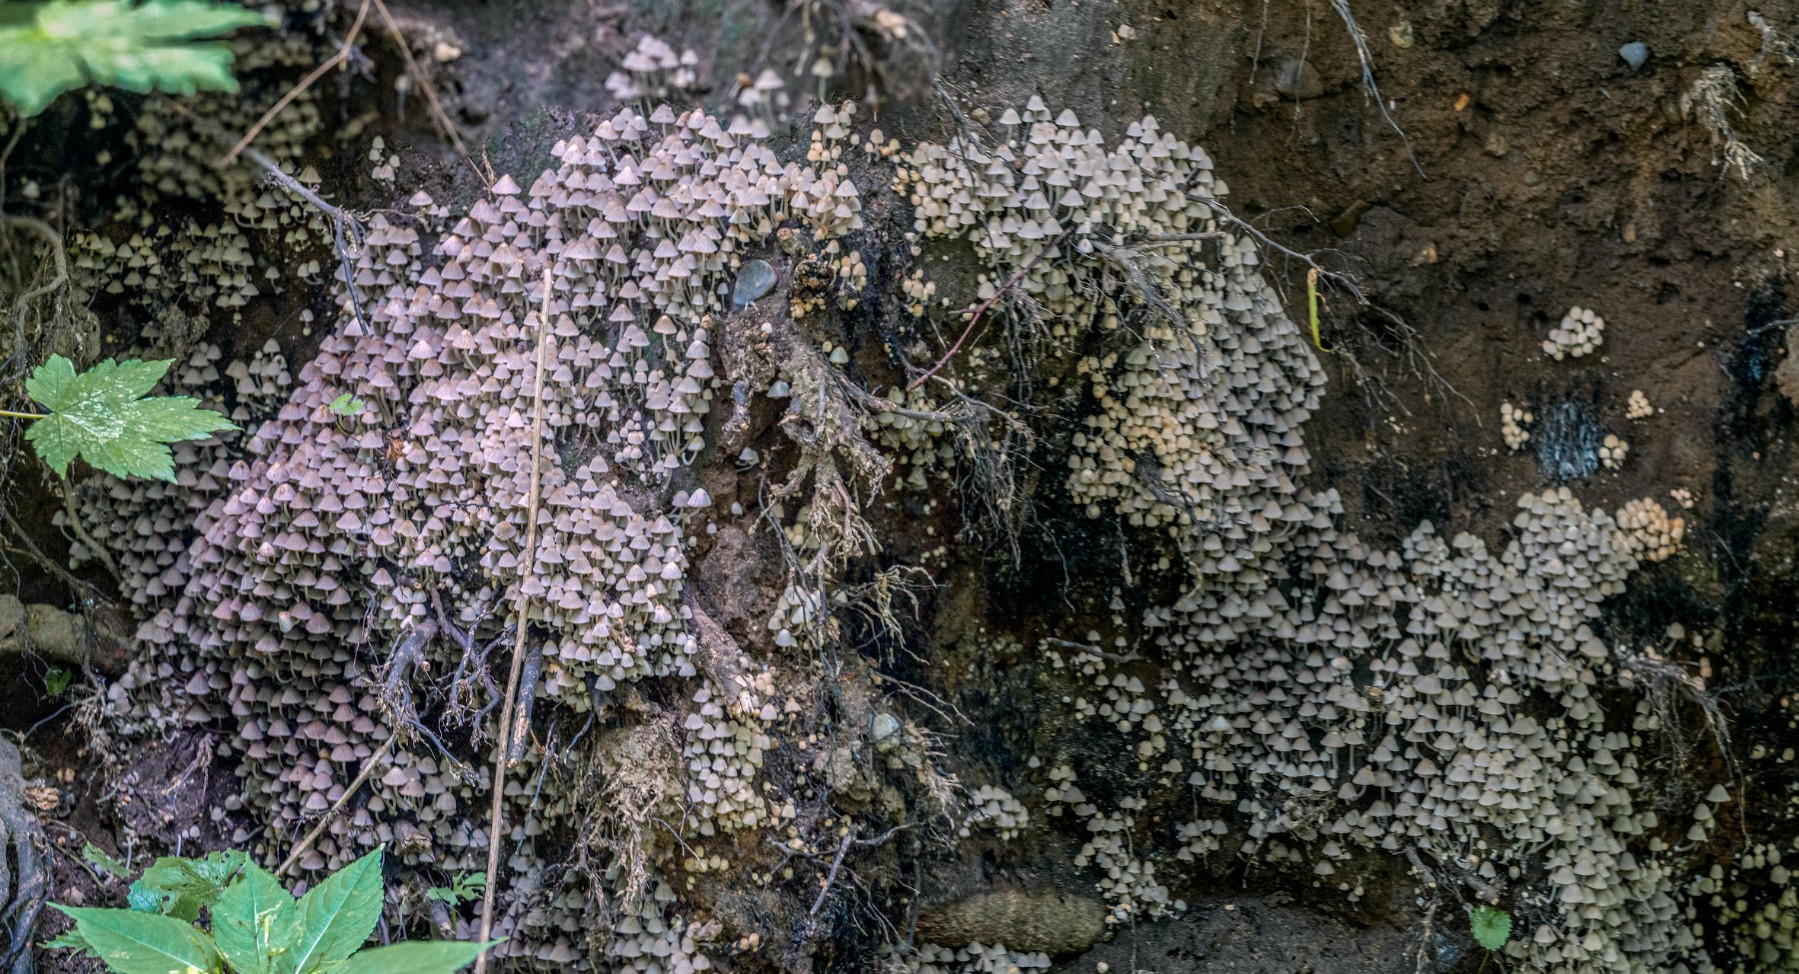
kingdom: Fungi
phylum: Basidiomycota
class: Agaricomycetes
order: Agaricales
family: Psathyrellaceae
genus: Coprinellus
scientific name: Coprinellus disseminatus
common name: bredsået blækhat
